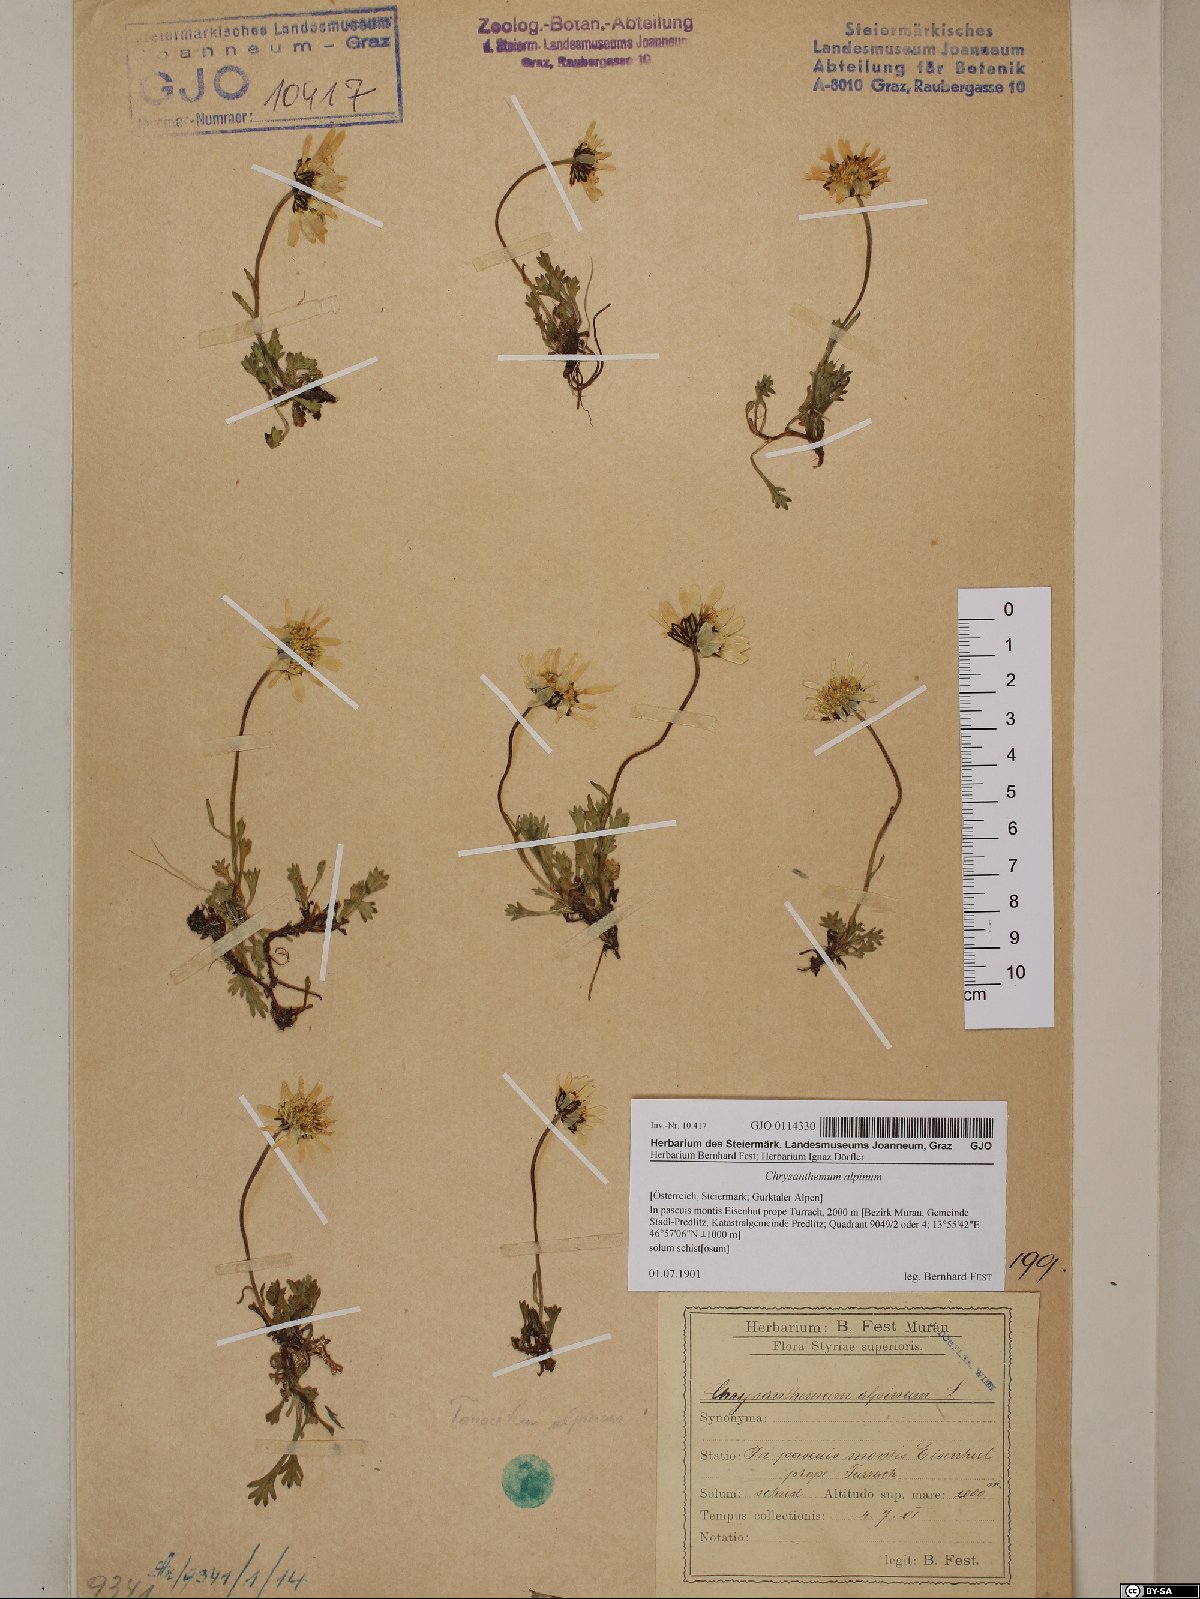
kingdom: Plantae
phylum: Tracheophyta
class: Magnoliopsida
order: Asterales
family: Asteraceae
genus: Leucanthemopsis
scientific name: Leucanthemopsis alpina
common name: Alpine moon daisy
